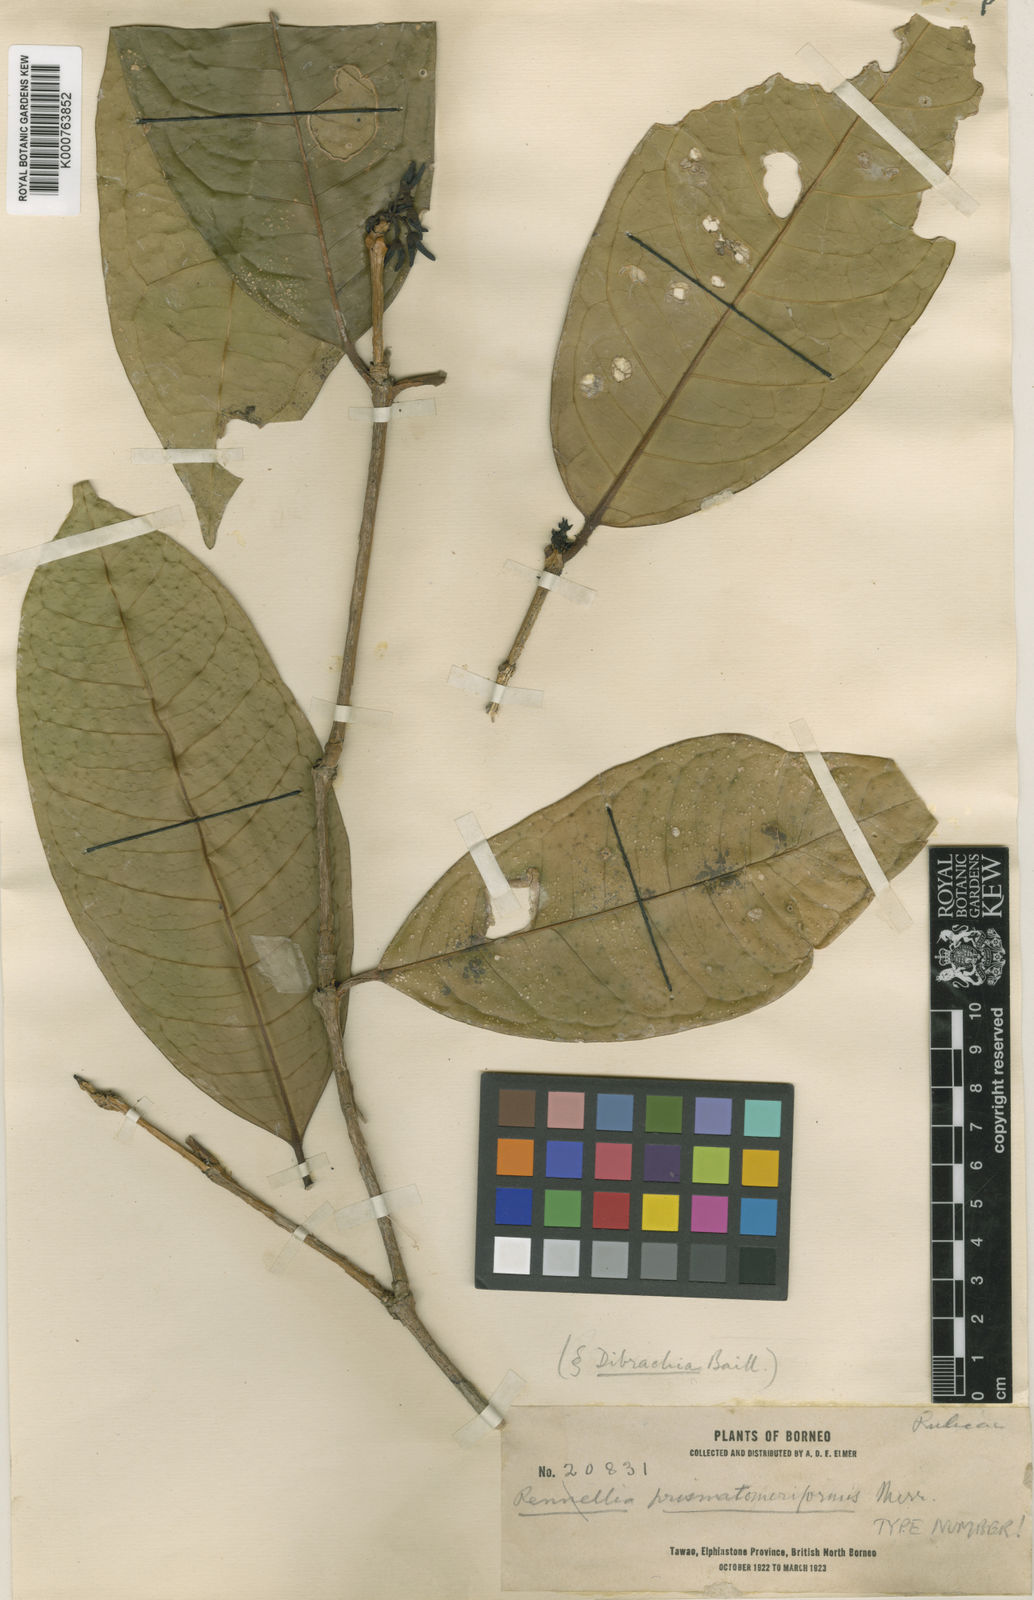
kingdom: Plantae
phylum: Tracheophyta
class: Magnoliopsida
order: Gentianales
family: Rubiaceae
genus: Prismatomeris
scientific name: Prismatomeris
